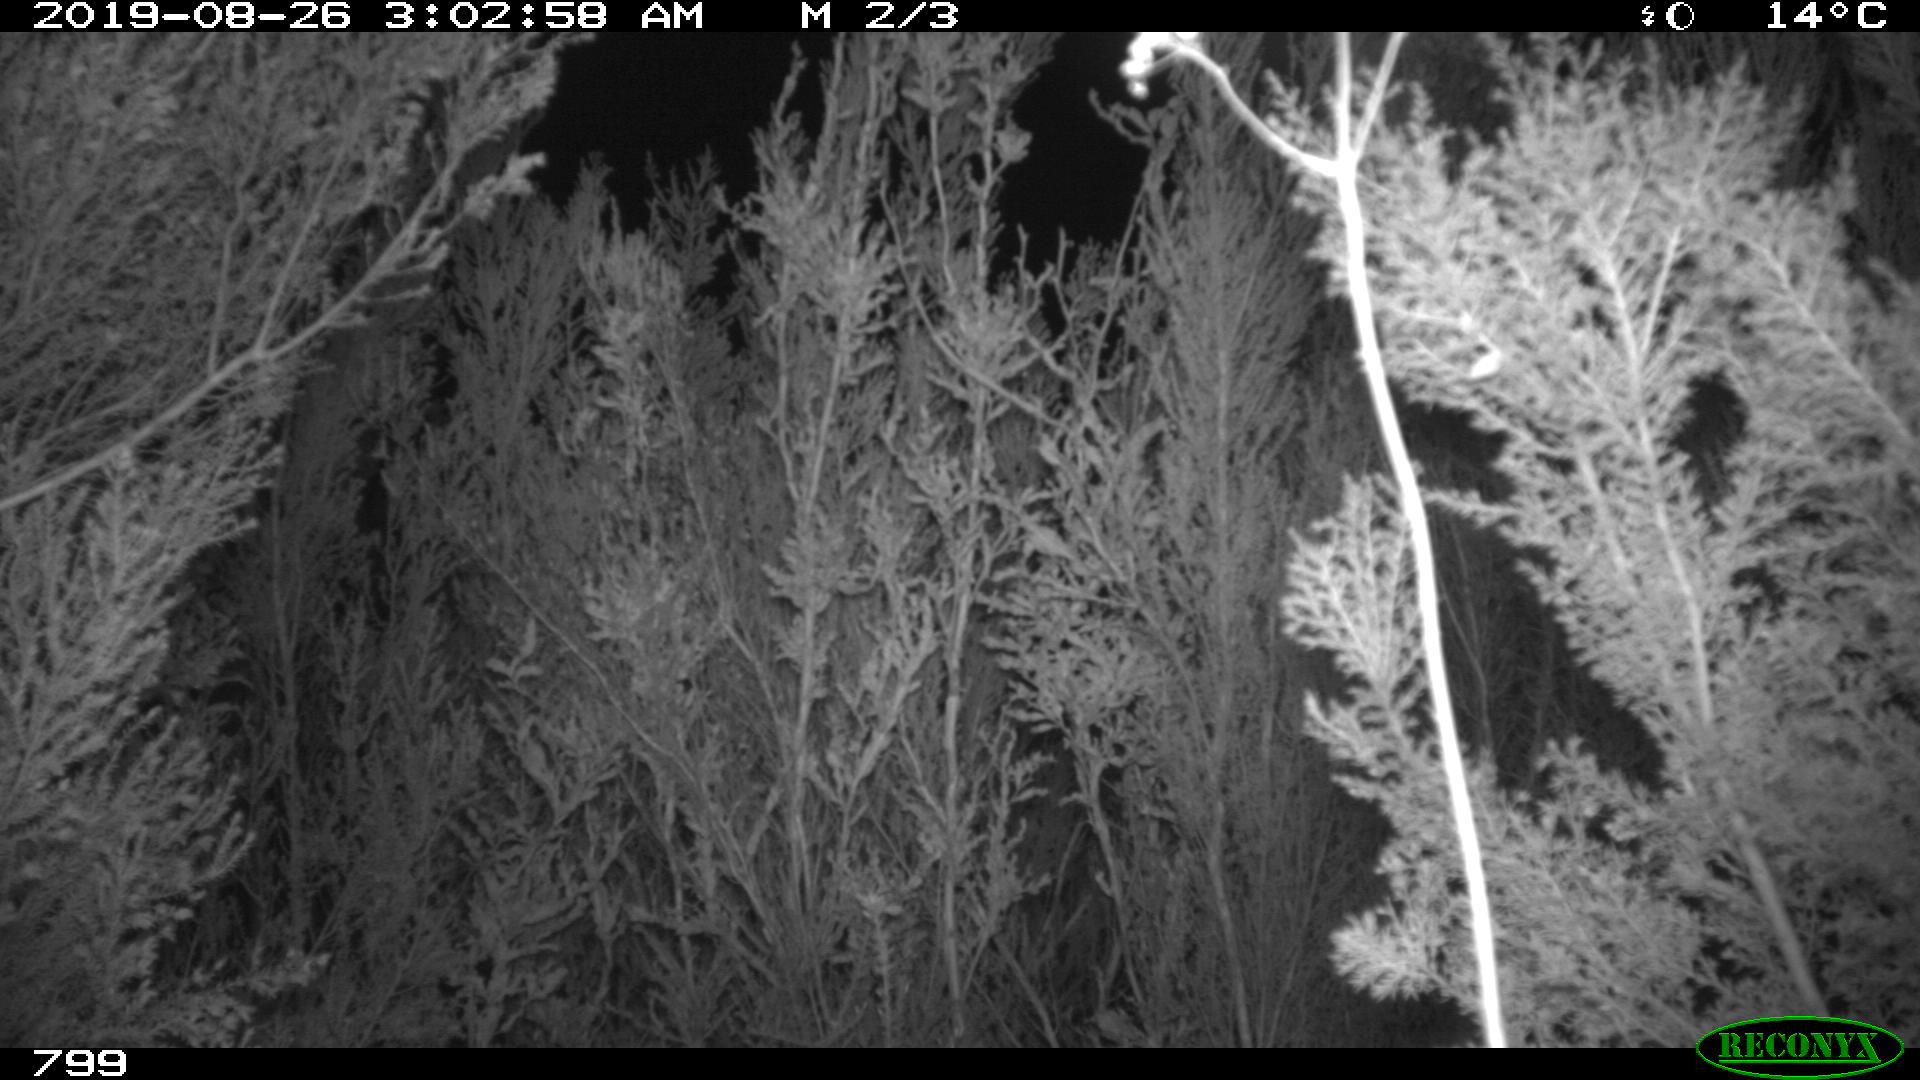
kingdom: Animalia
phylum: Chordata
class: Mammalia
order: Artiodactyla
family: Cervidae
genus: Capreolus
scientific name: Capreolus capreolus
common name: Western roe deer
